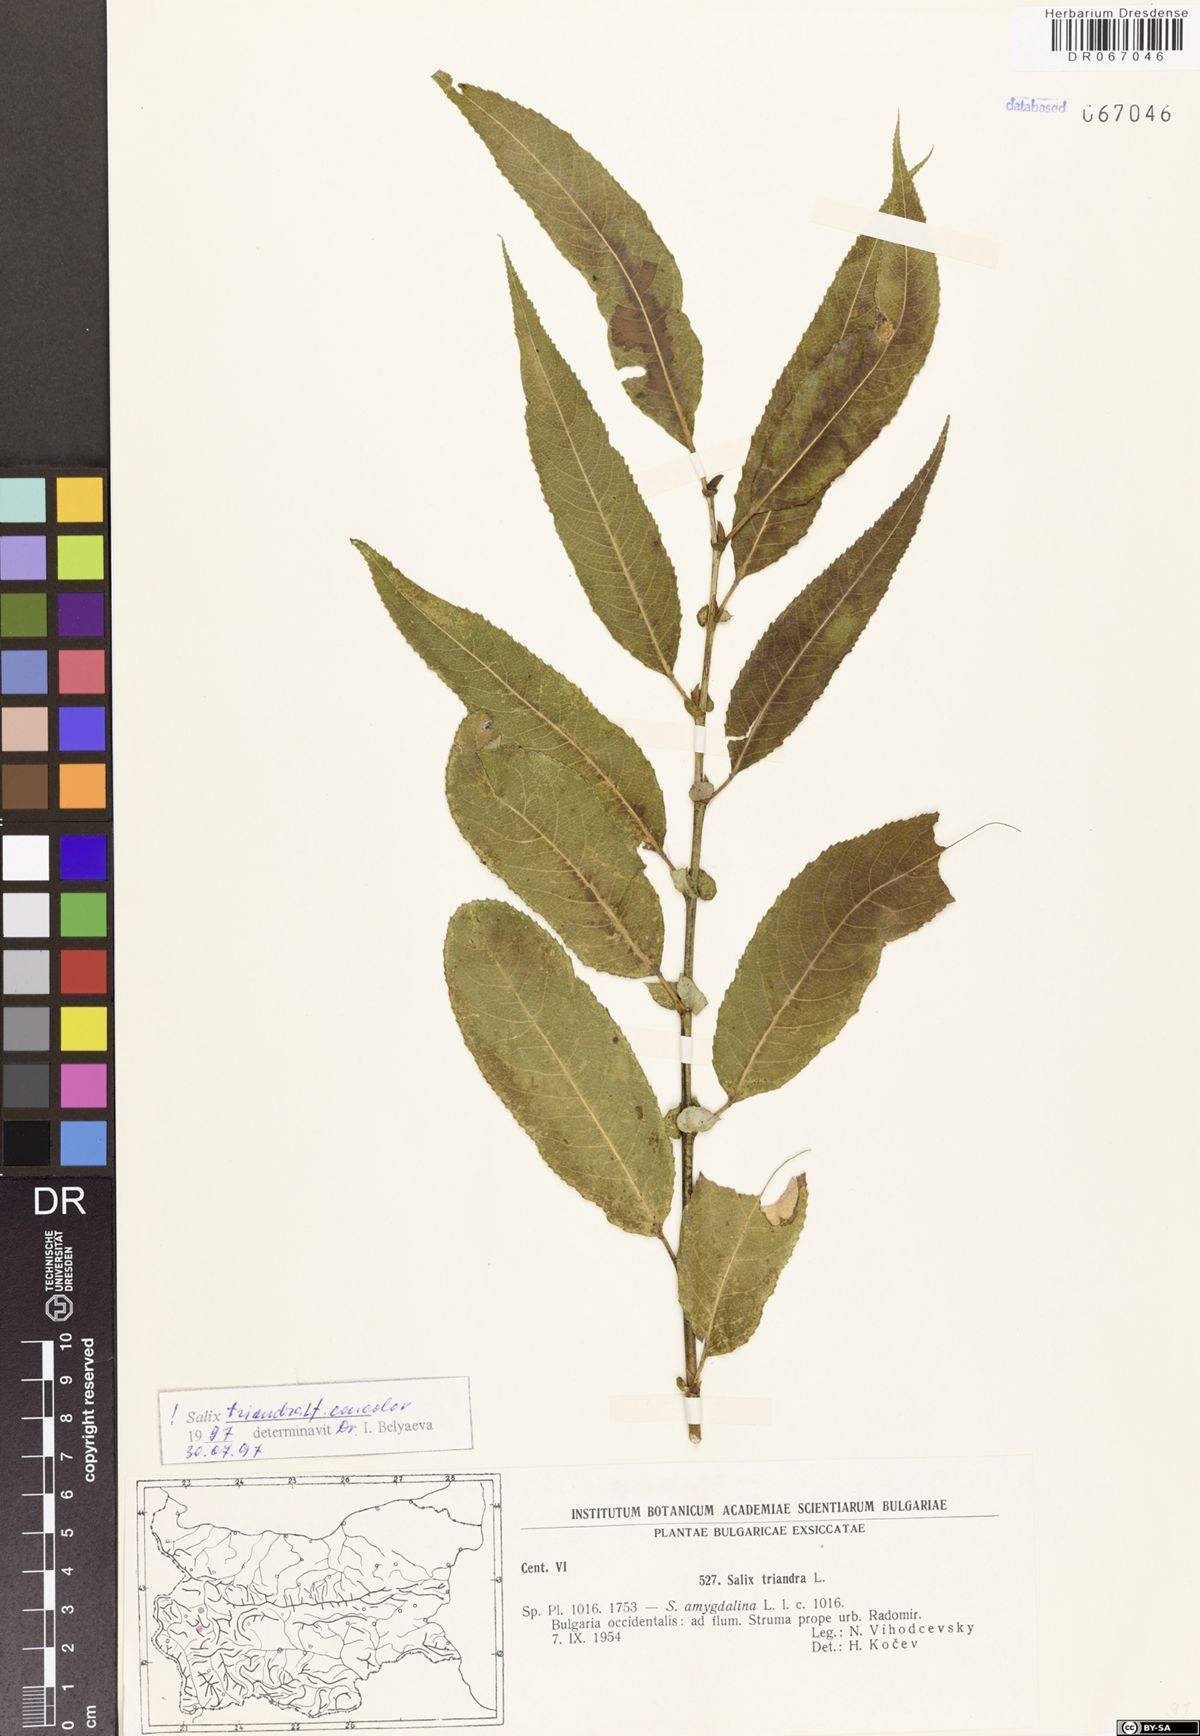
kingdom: Plantae
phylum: Tracheophyta
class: Magnoliopsida
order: Malpighiales
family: Salicaceae
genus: Salix
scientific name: Salix triandra
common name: Almond willow
